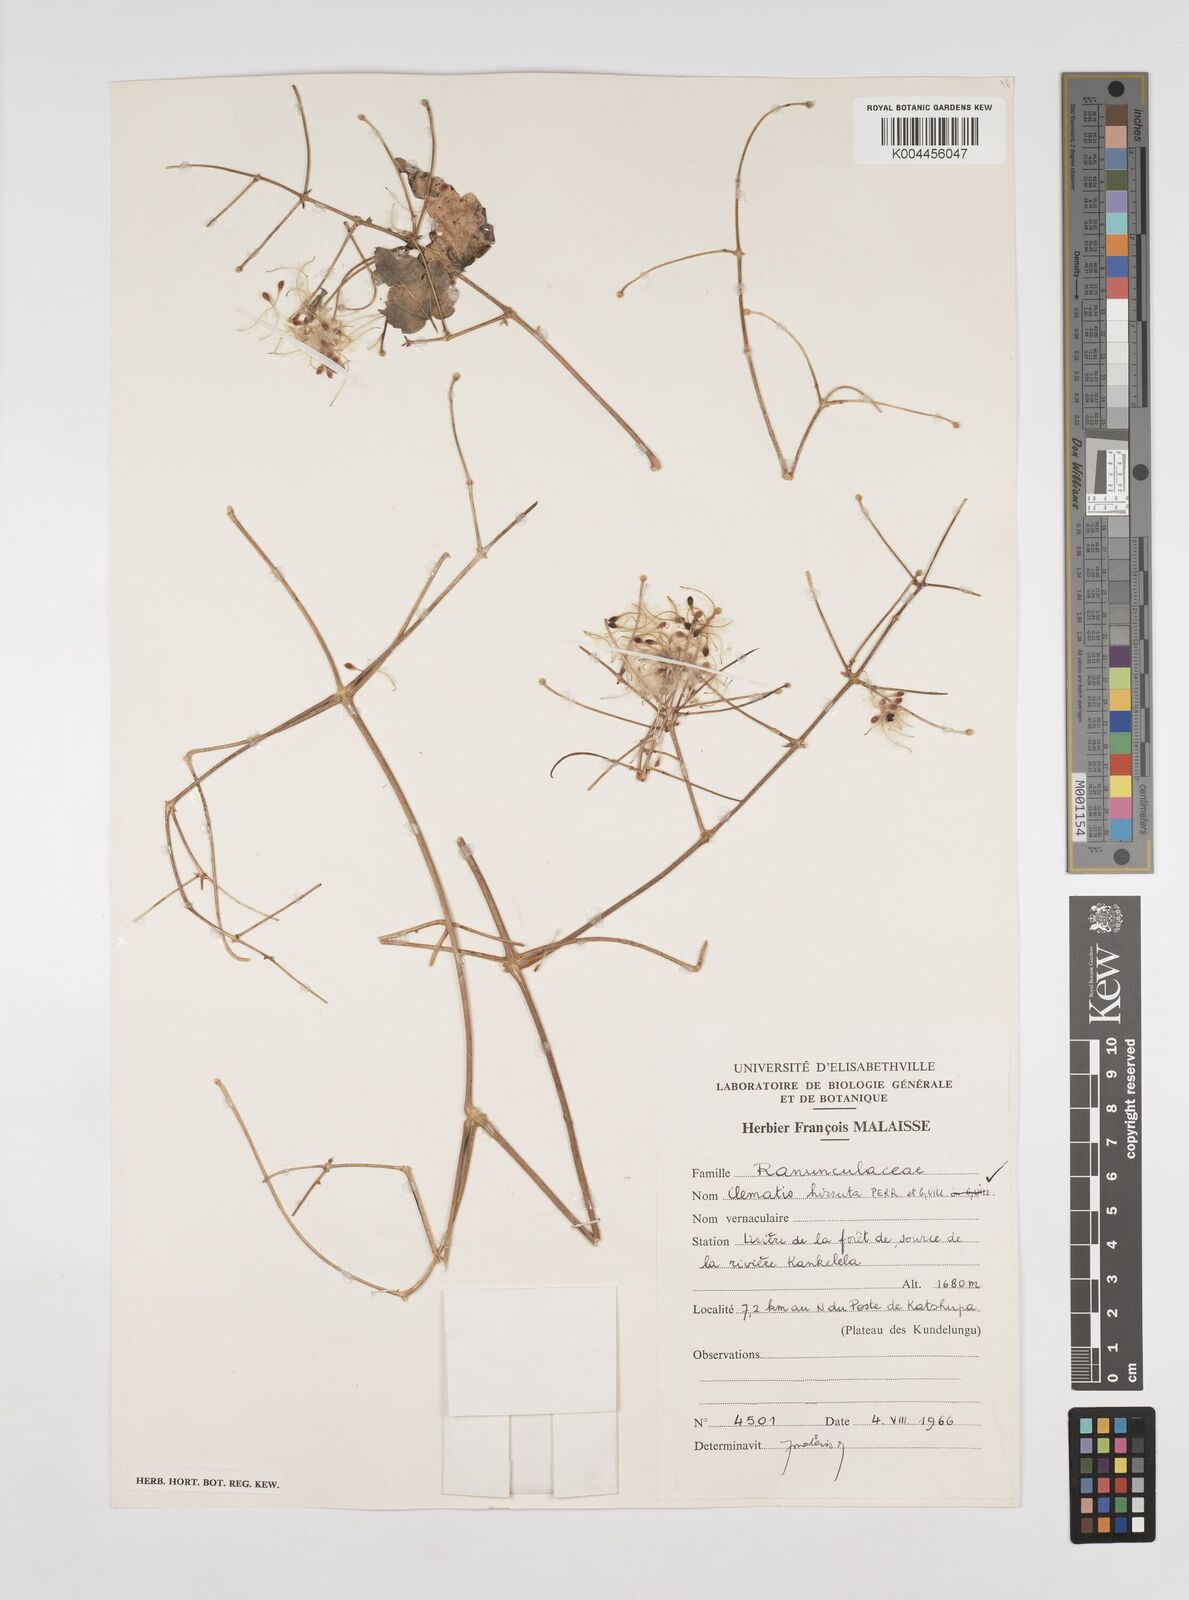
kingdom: Plantae
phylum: Tracheophyta
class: Magnoliopsida
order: Ranunculales
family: Ranunculaceae
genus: Clematis
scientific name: Clematis hirsuta
